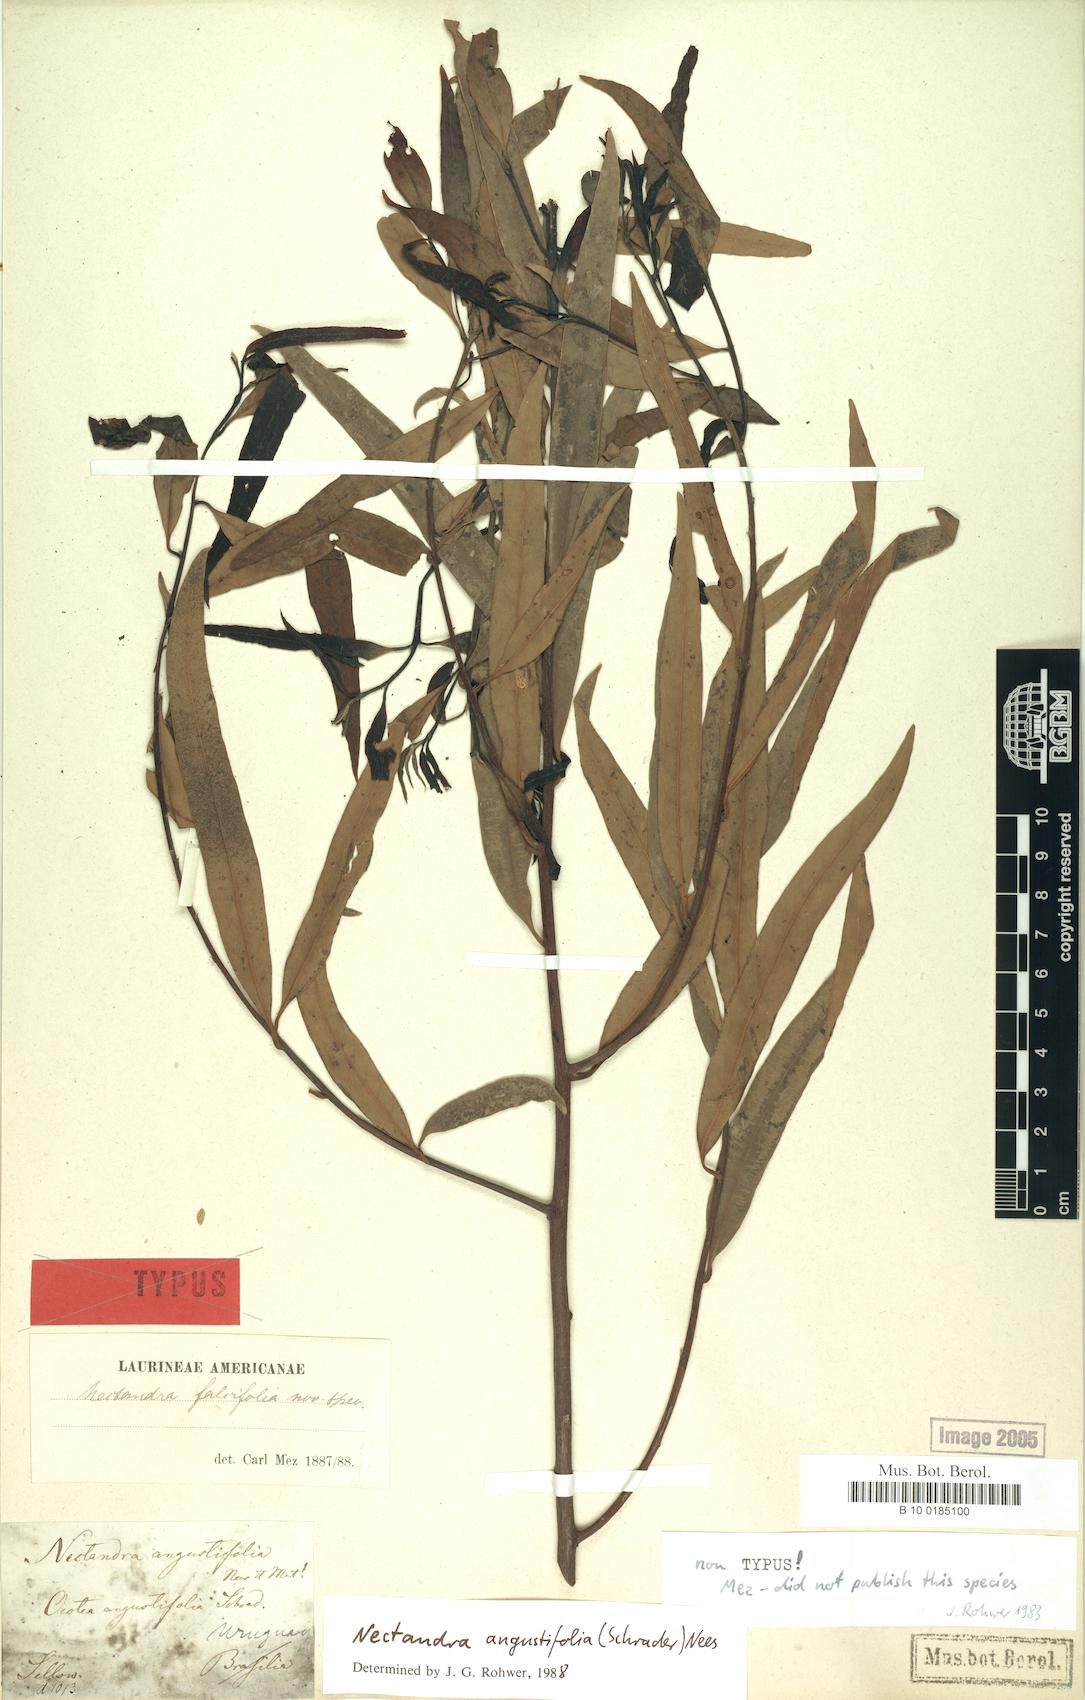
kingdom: Plantae
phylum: Tracheophyta
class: Magnoliopsida
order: Laurales
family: Lauraceae
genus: Nectandra
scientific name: Nectandra angustifolia
